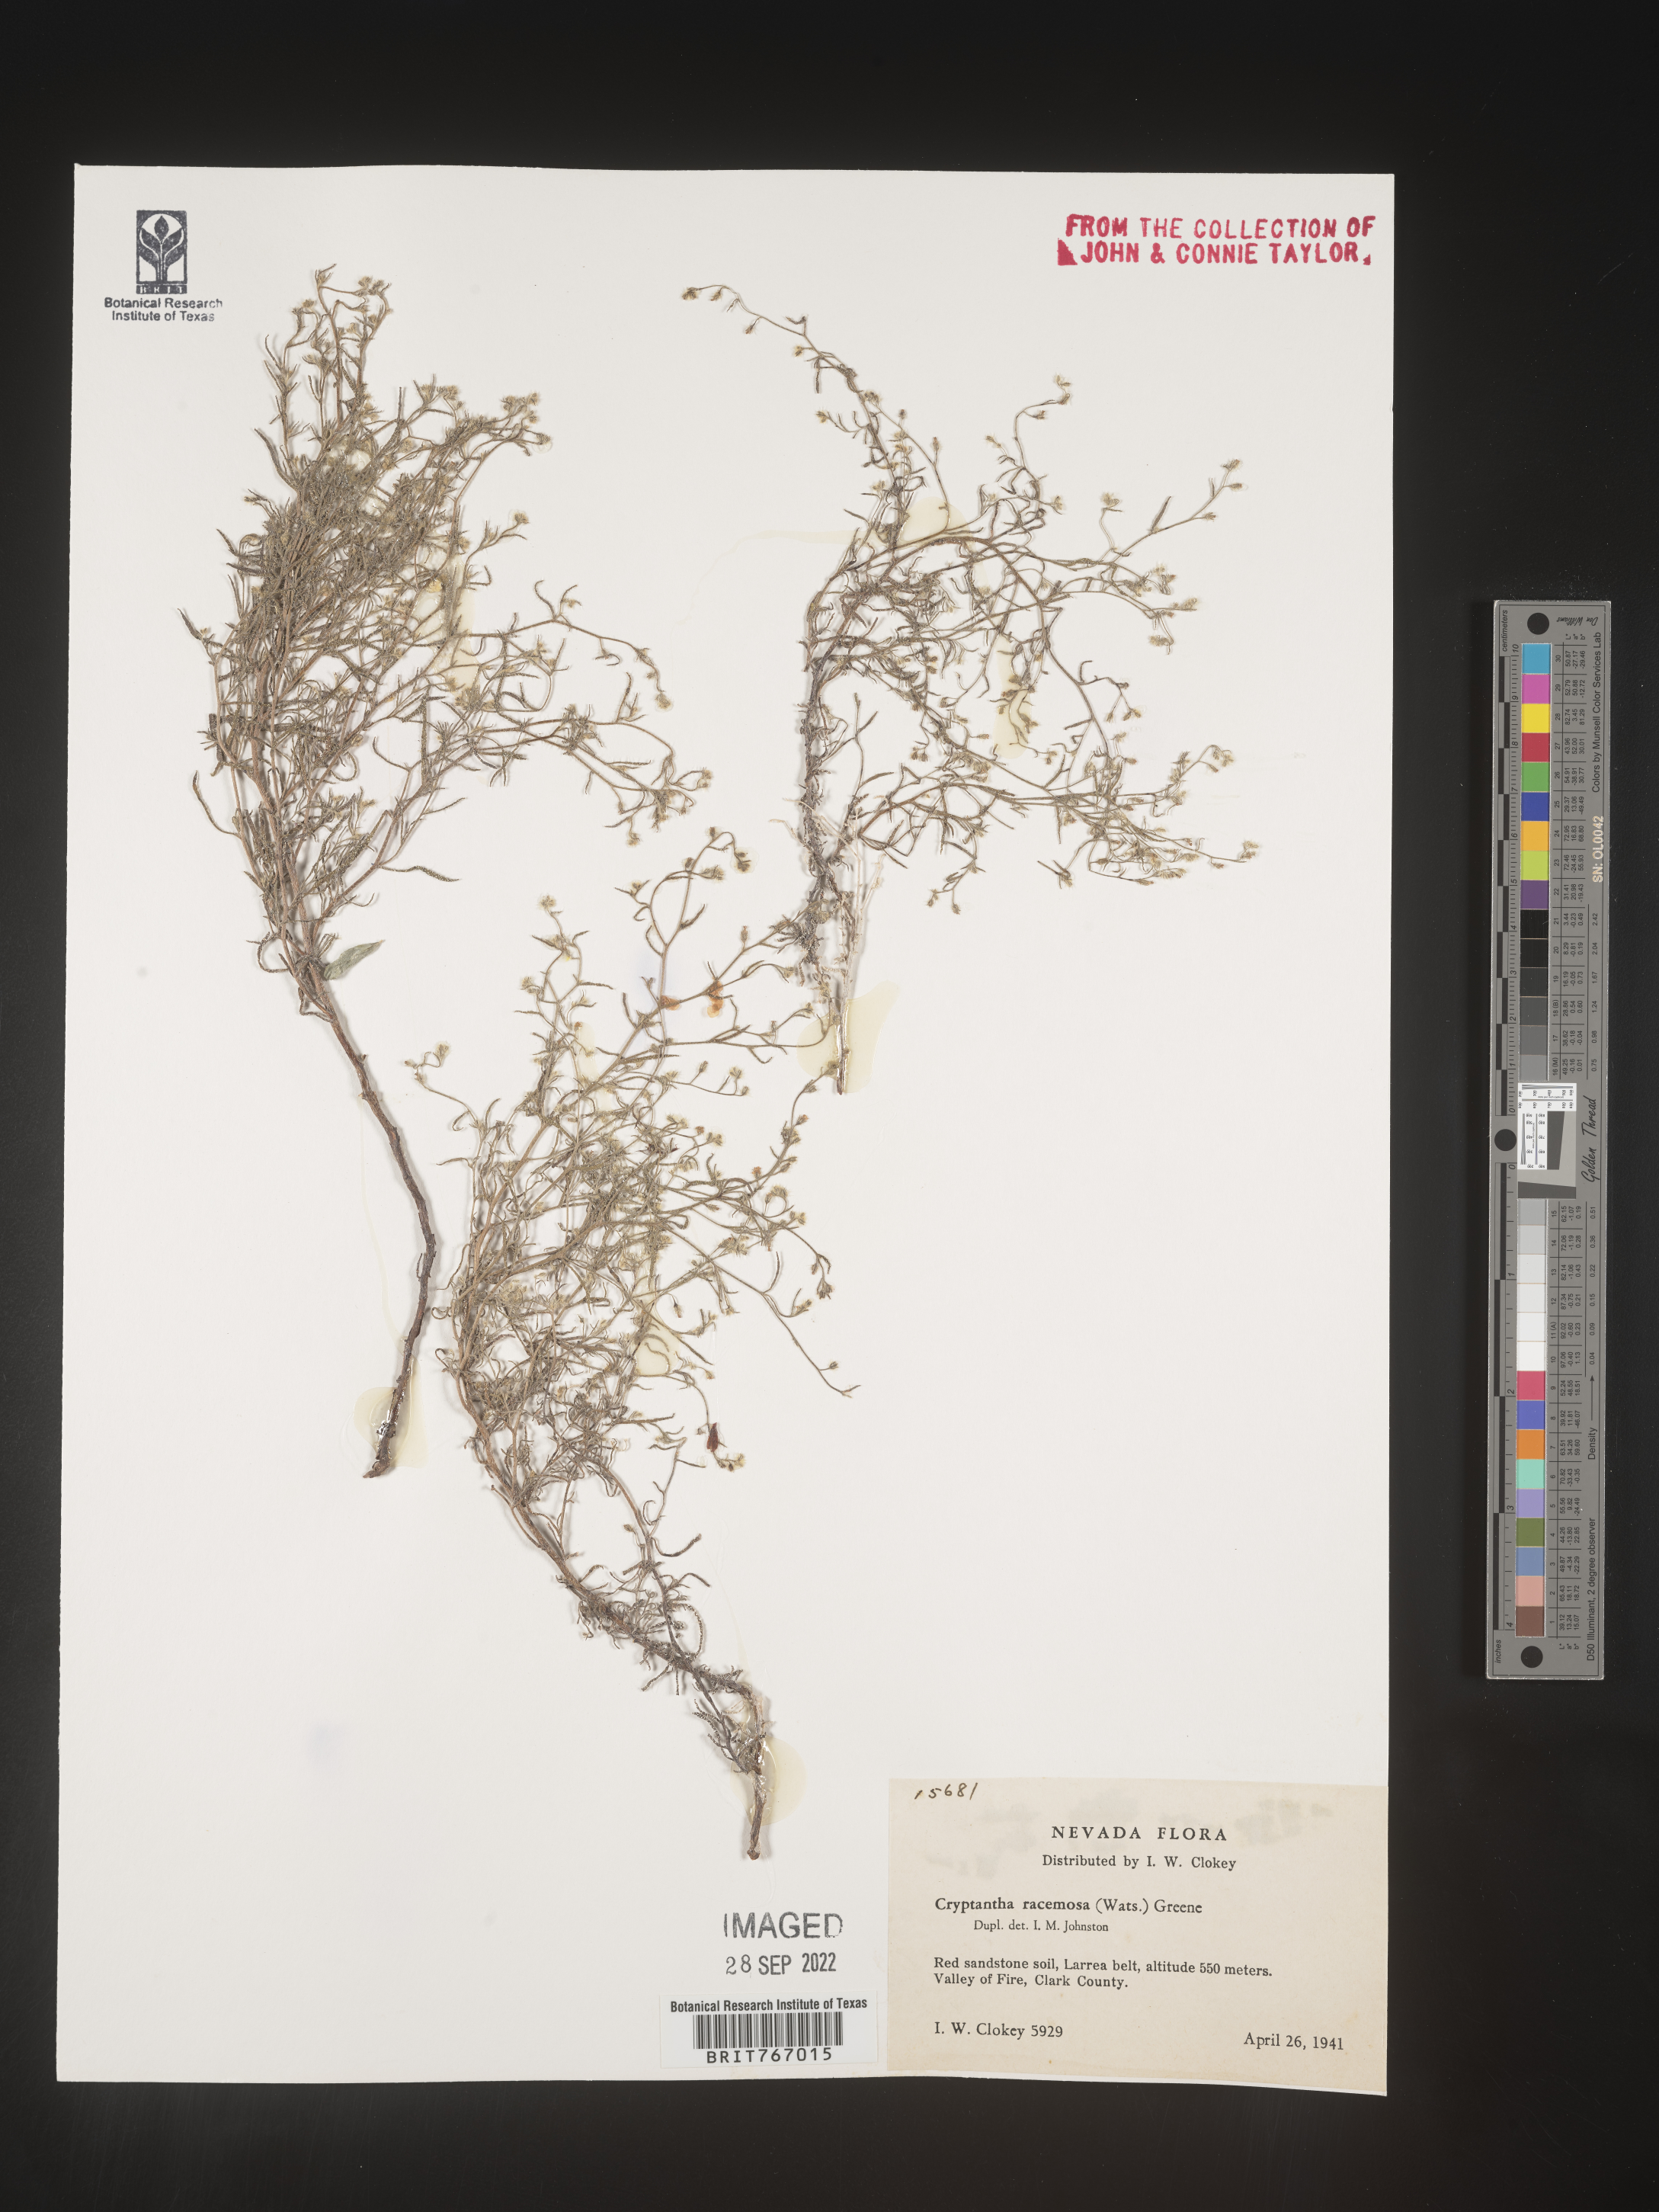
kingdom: Plantae
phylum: Tracheophyta
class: Magnoliopsida
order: Boraginales
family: Boraginaceae
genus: Cryptantha
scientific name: Cryptantha
